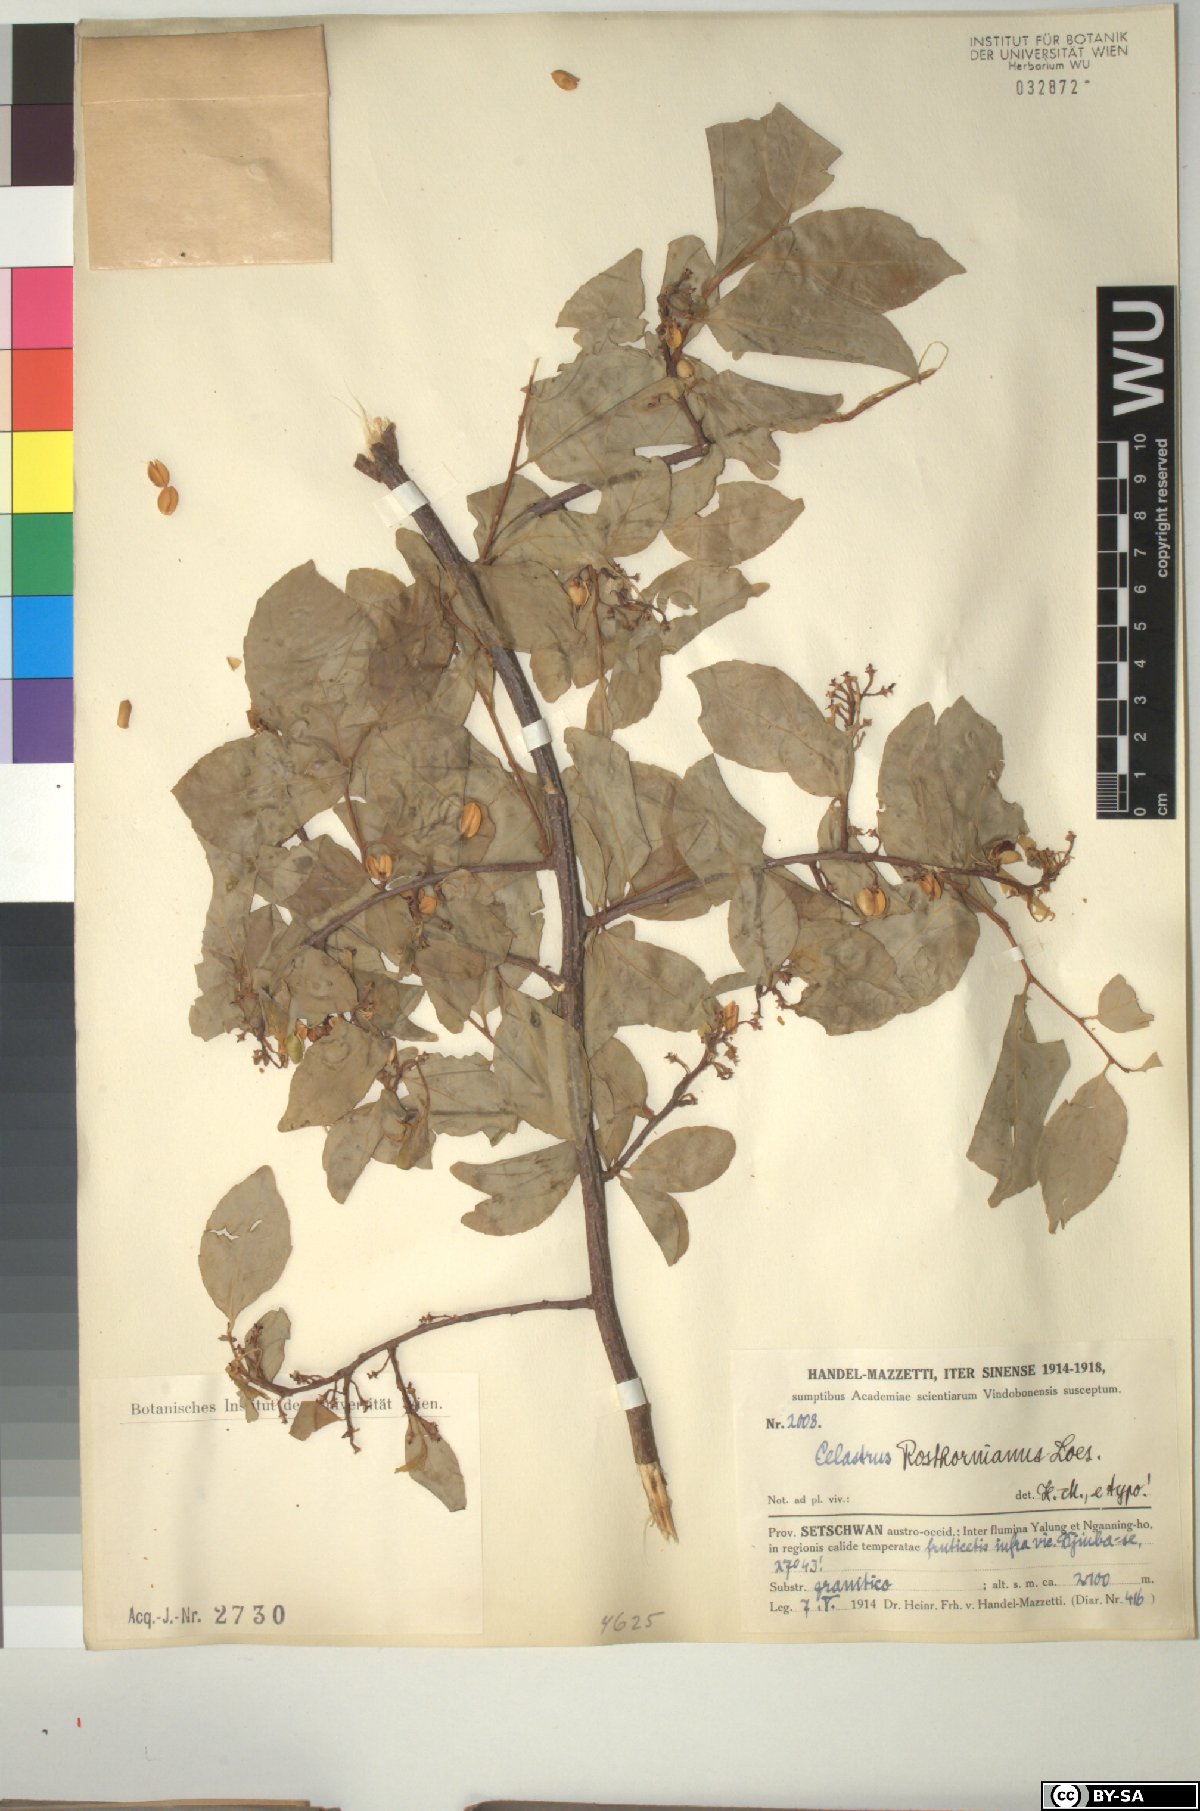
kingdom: Plantae
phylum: Tracheophyta
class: Magnoliopsida
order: Celastrales
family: Celastraceae
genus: Celastrus
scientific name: Celastrus rosthornianus
